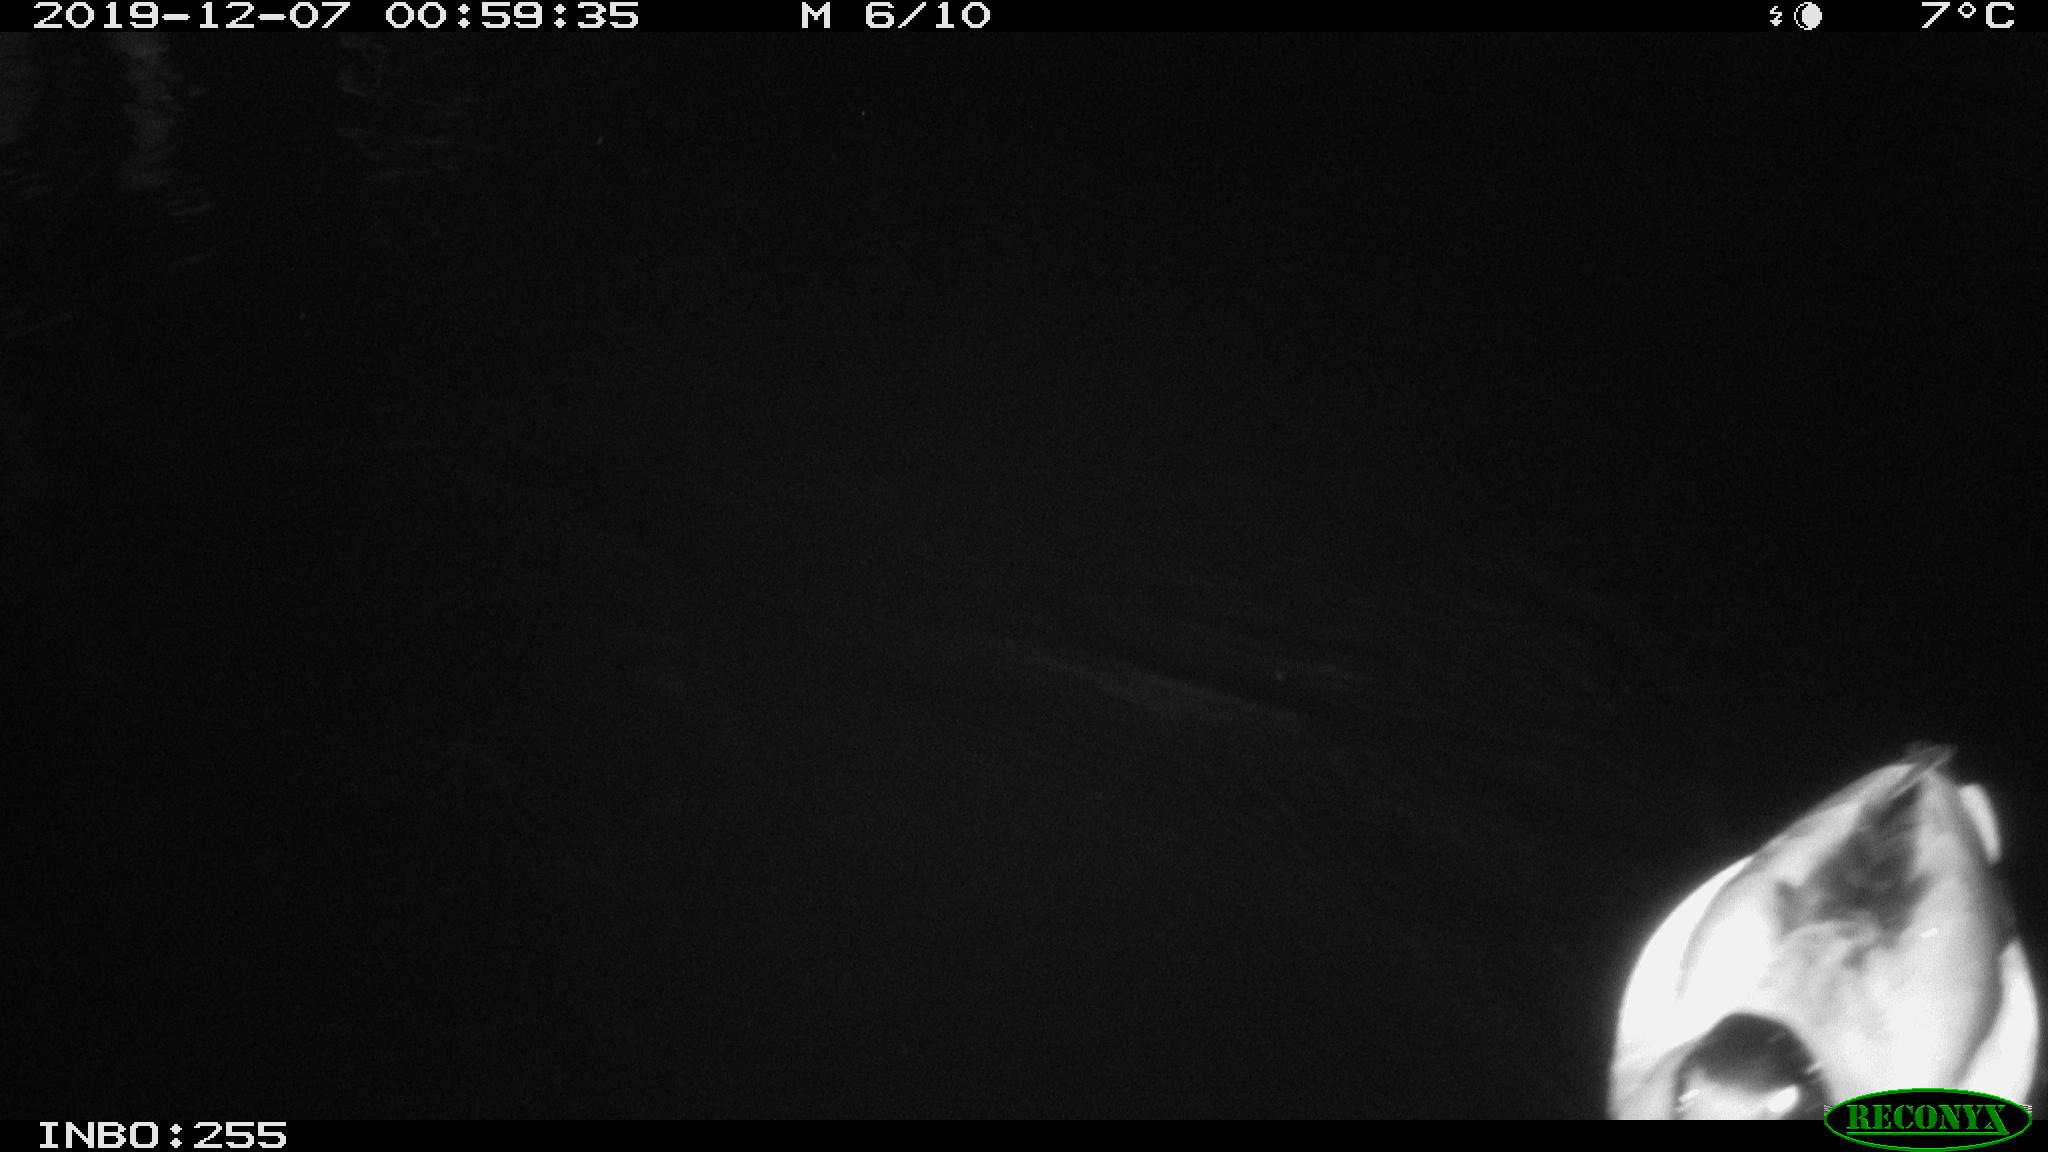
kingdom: Animalia
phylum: Chordata
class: Aves
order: Anseriformes
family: Anatidae
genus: Anas
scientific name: Anas platyrhynchos
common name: Mallard
